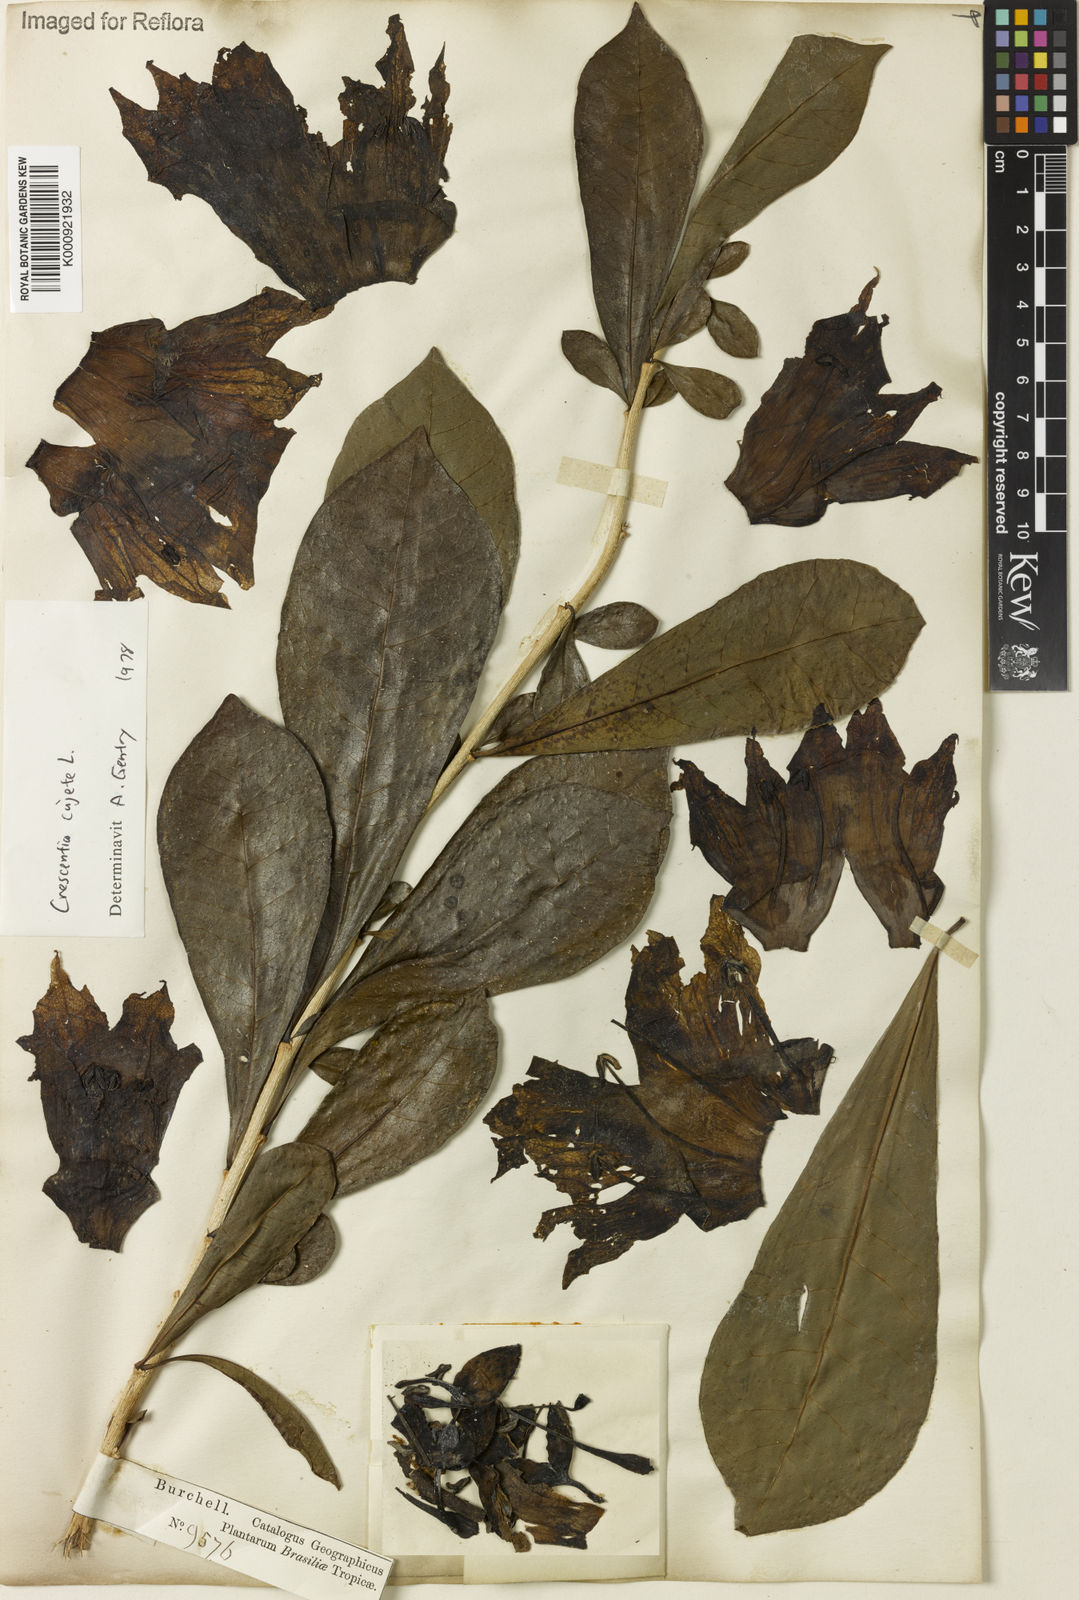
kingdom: Plantae
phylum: Tracheophyta
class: Magnoliopsida
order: Lamiales
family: Bignoniaceae
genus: Crescentia
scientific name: Crescentia cujete
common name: Calabash
